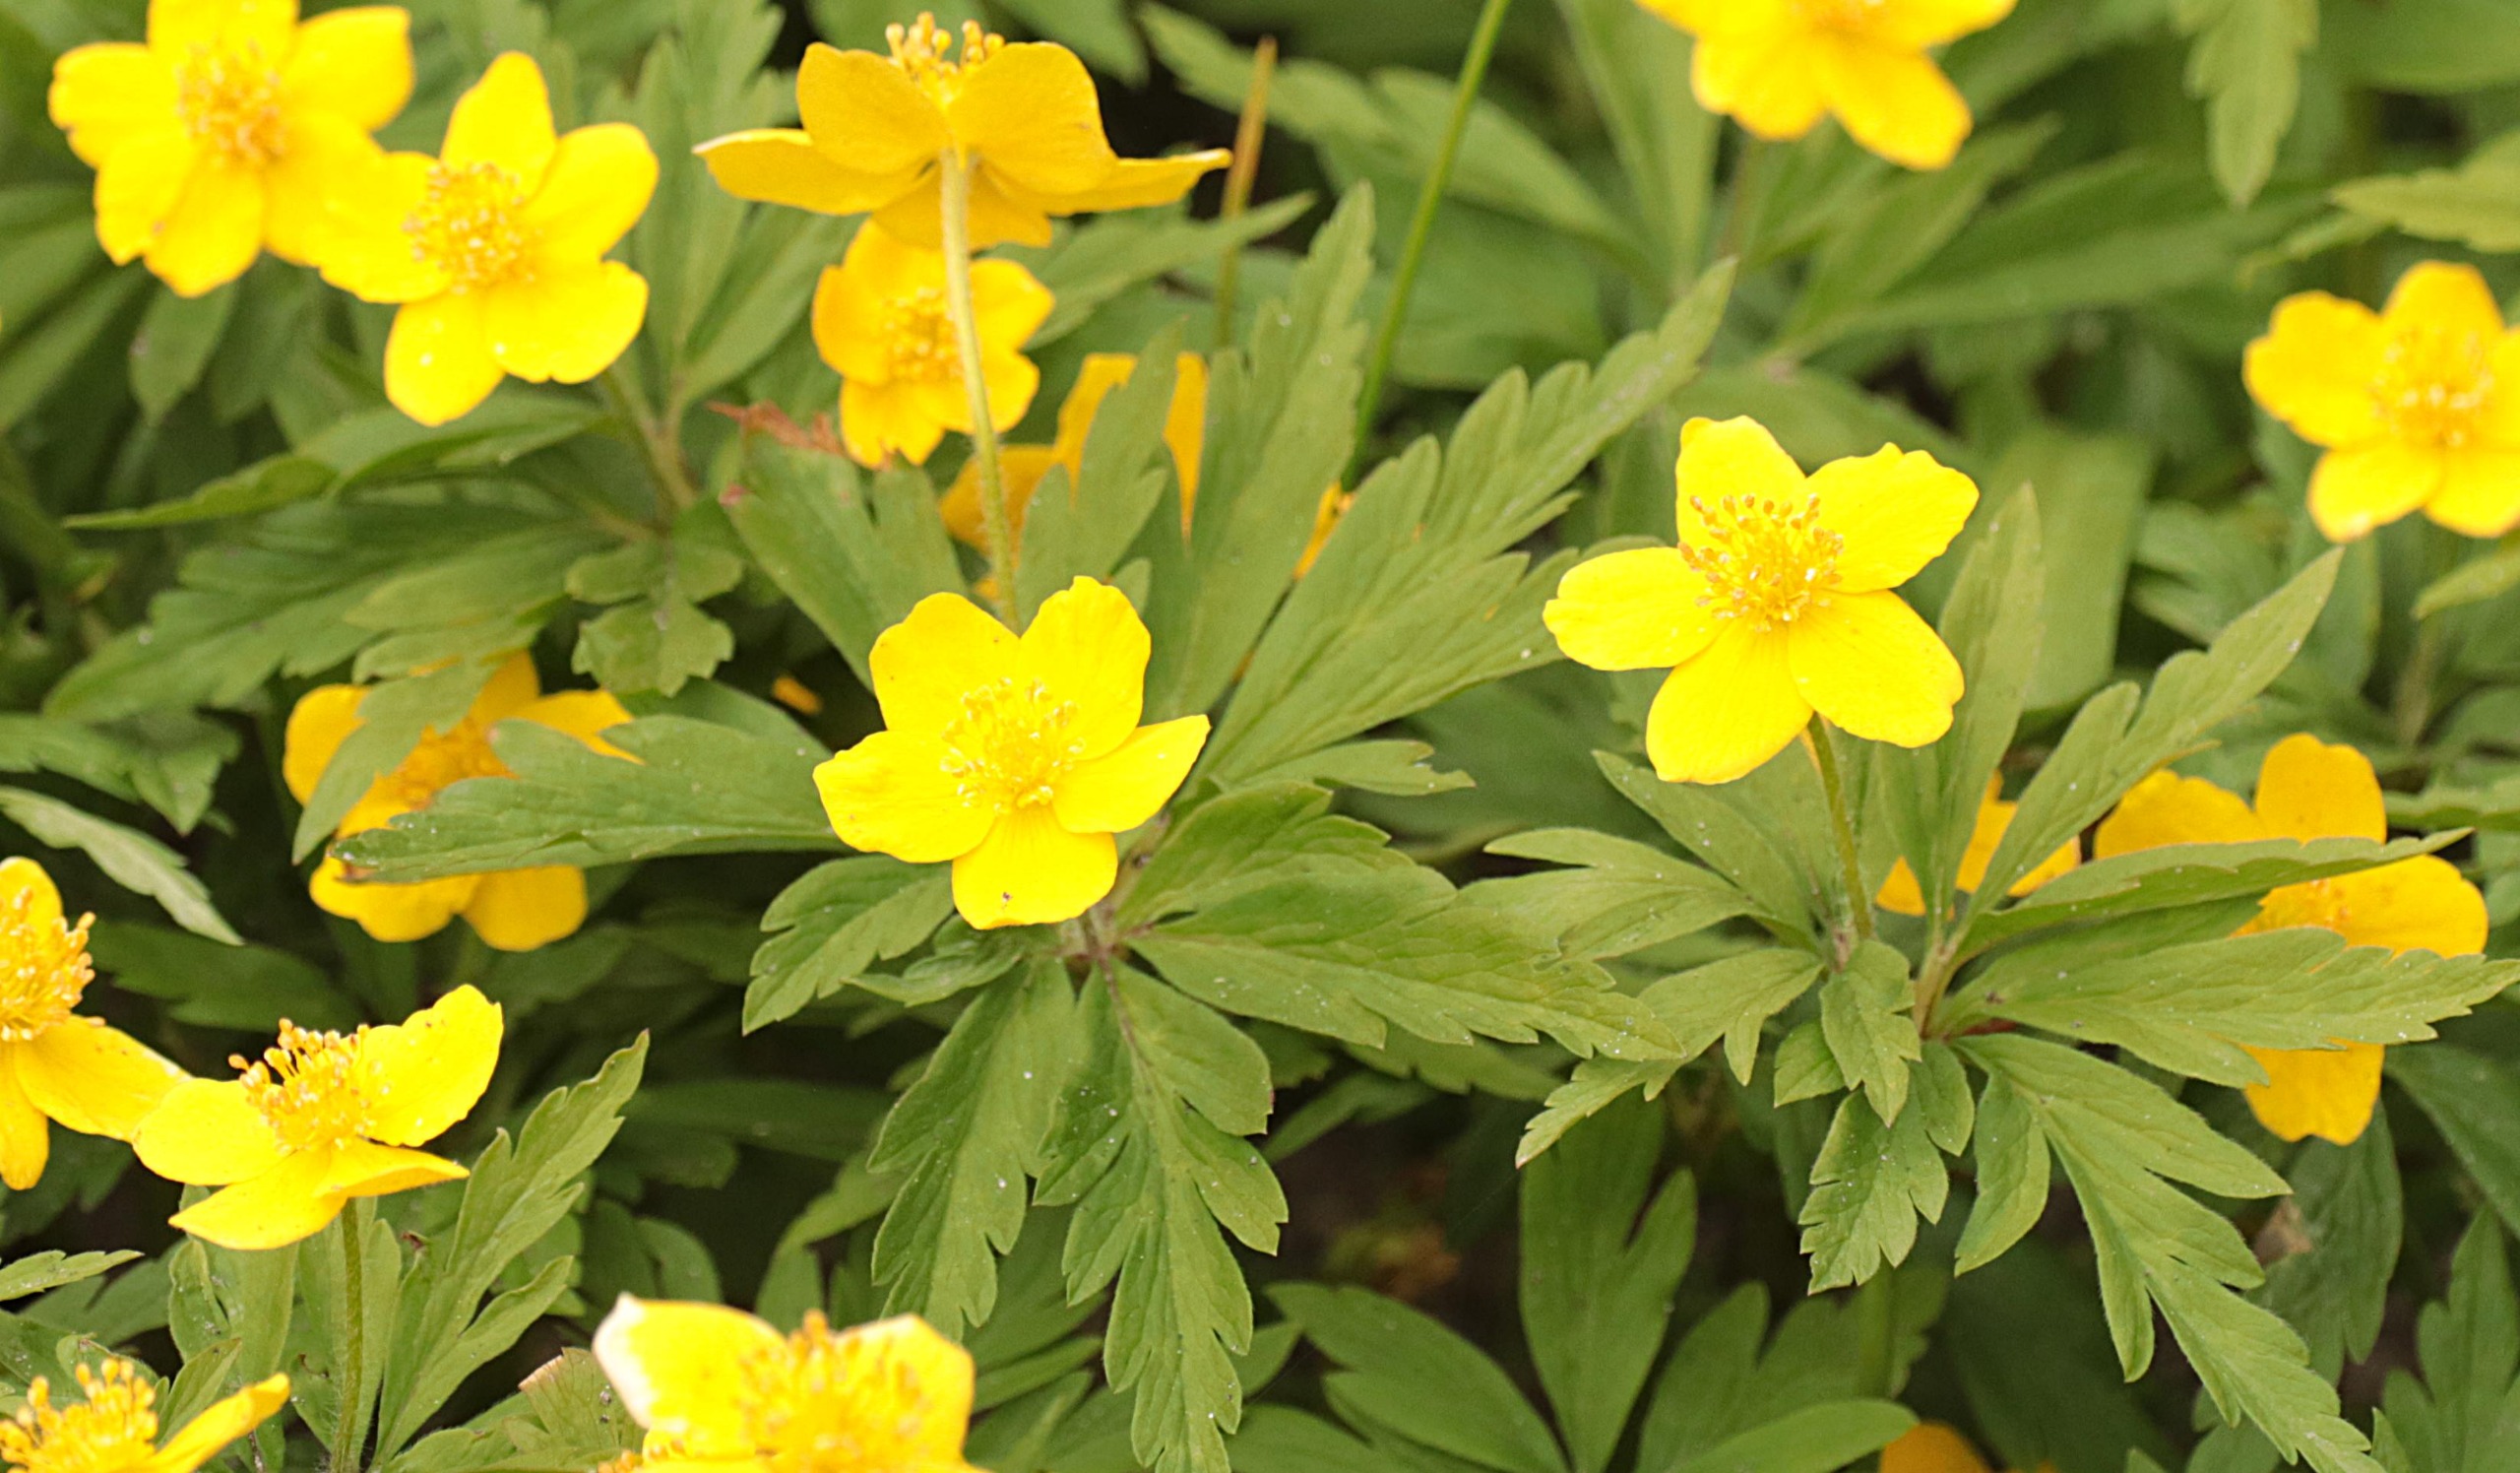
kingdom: Plantae
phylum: Tracheophyta
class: Magnoliopsida
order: Ranunculales
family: Ranunculaceae
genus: Anemone
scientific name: Anemone ranunculoides
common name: Gul anemone
